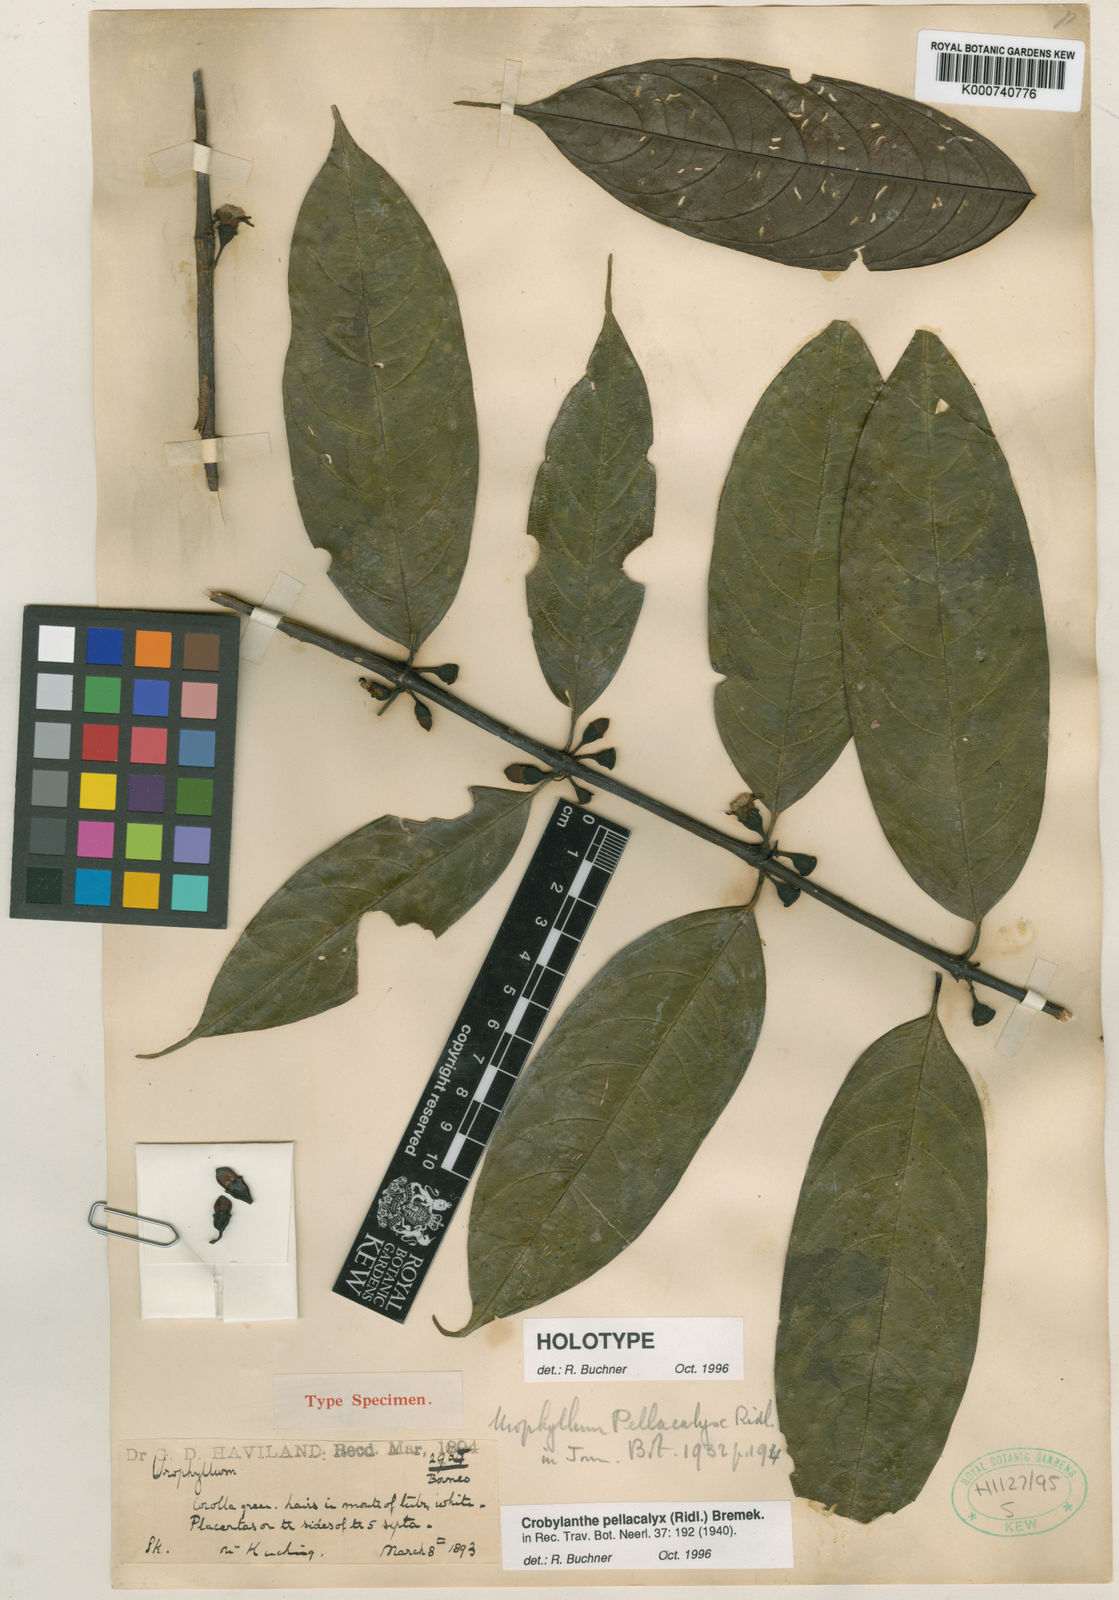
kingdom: Plantae
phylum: Tracheophyta
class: Magnoliopsida
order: Gentianales
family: Rubiaceae
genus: Crobylanthe
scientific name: Crobylanthe pellacalyx
